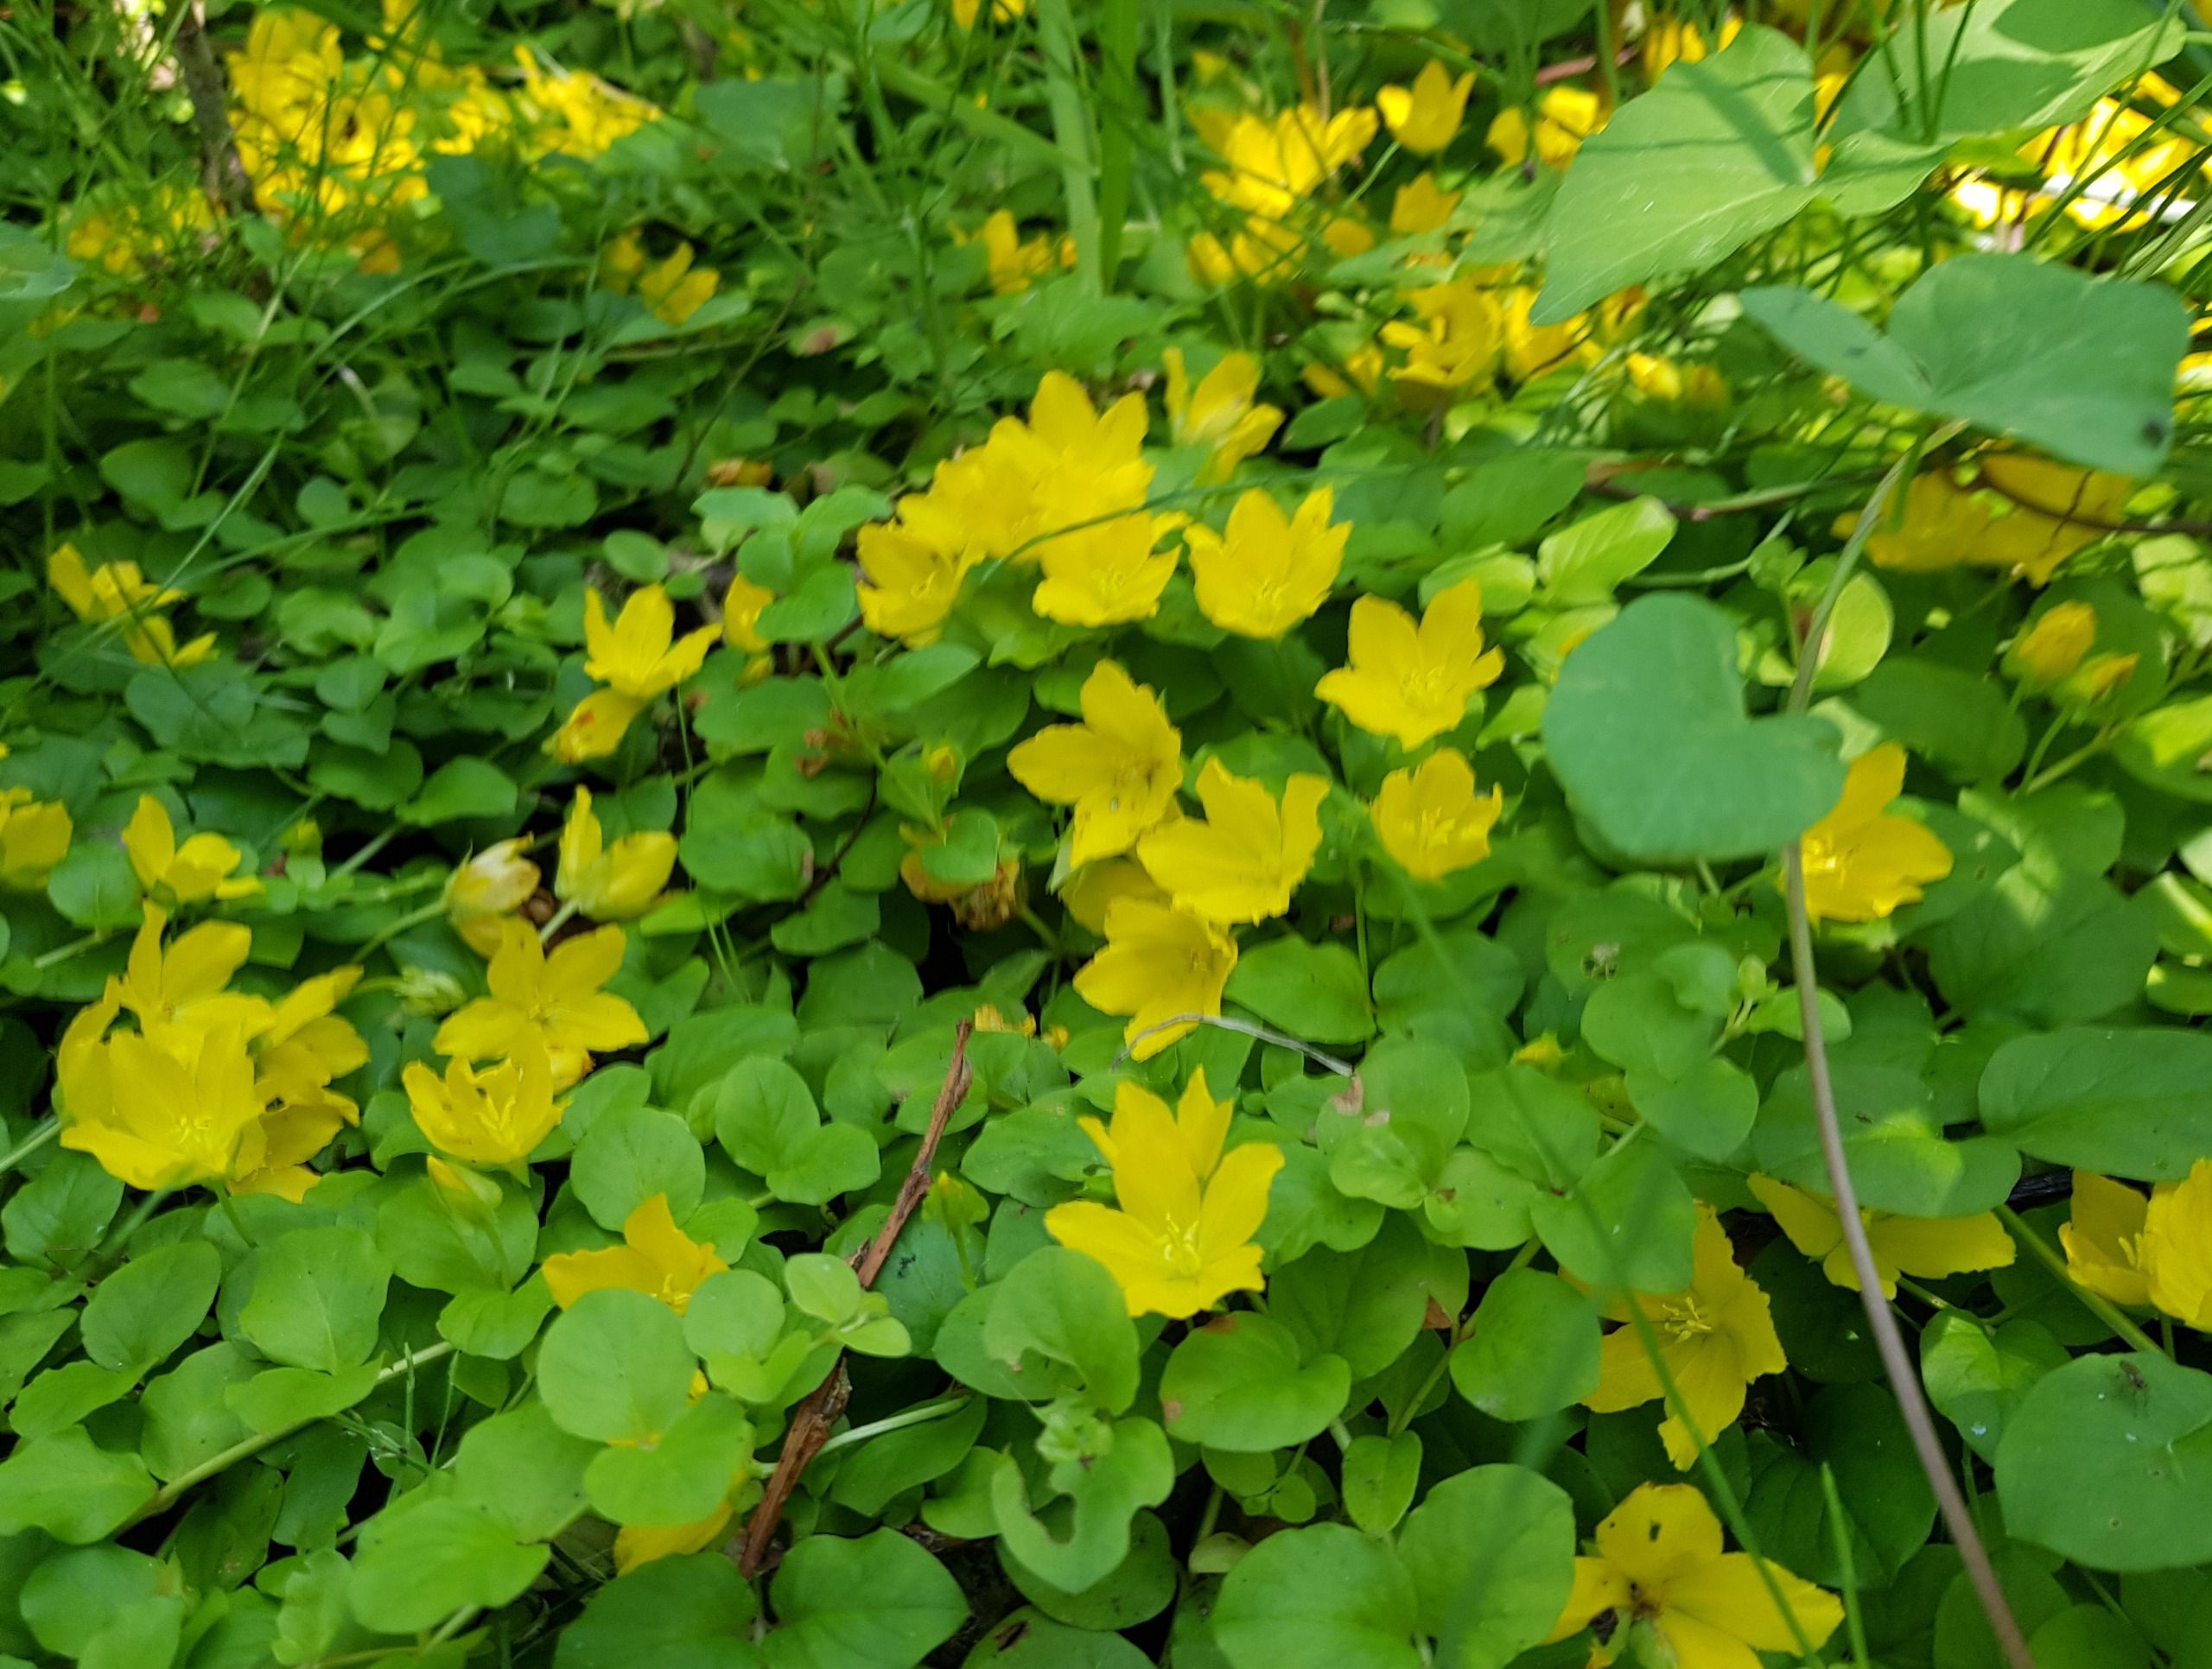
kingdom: Plantae
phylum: Tracheophyta
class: Magnoliopsida
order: Ericales
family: Primulaceae
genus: Lysimachia
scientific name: Lysimachia nummularia
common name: Pengebladet fredløs
